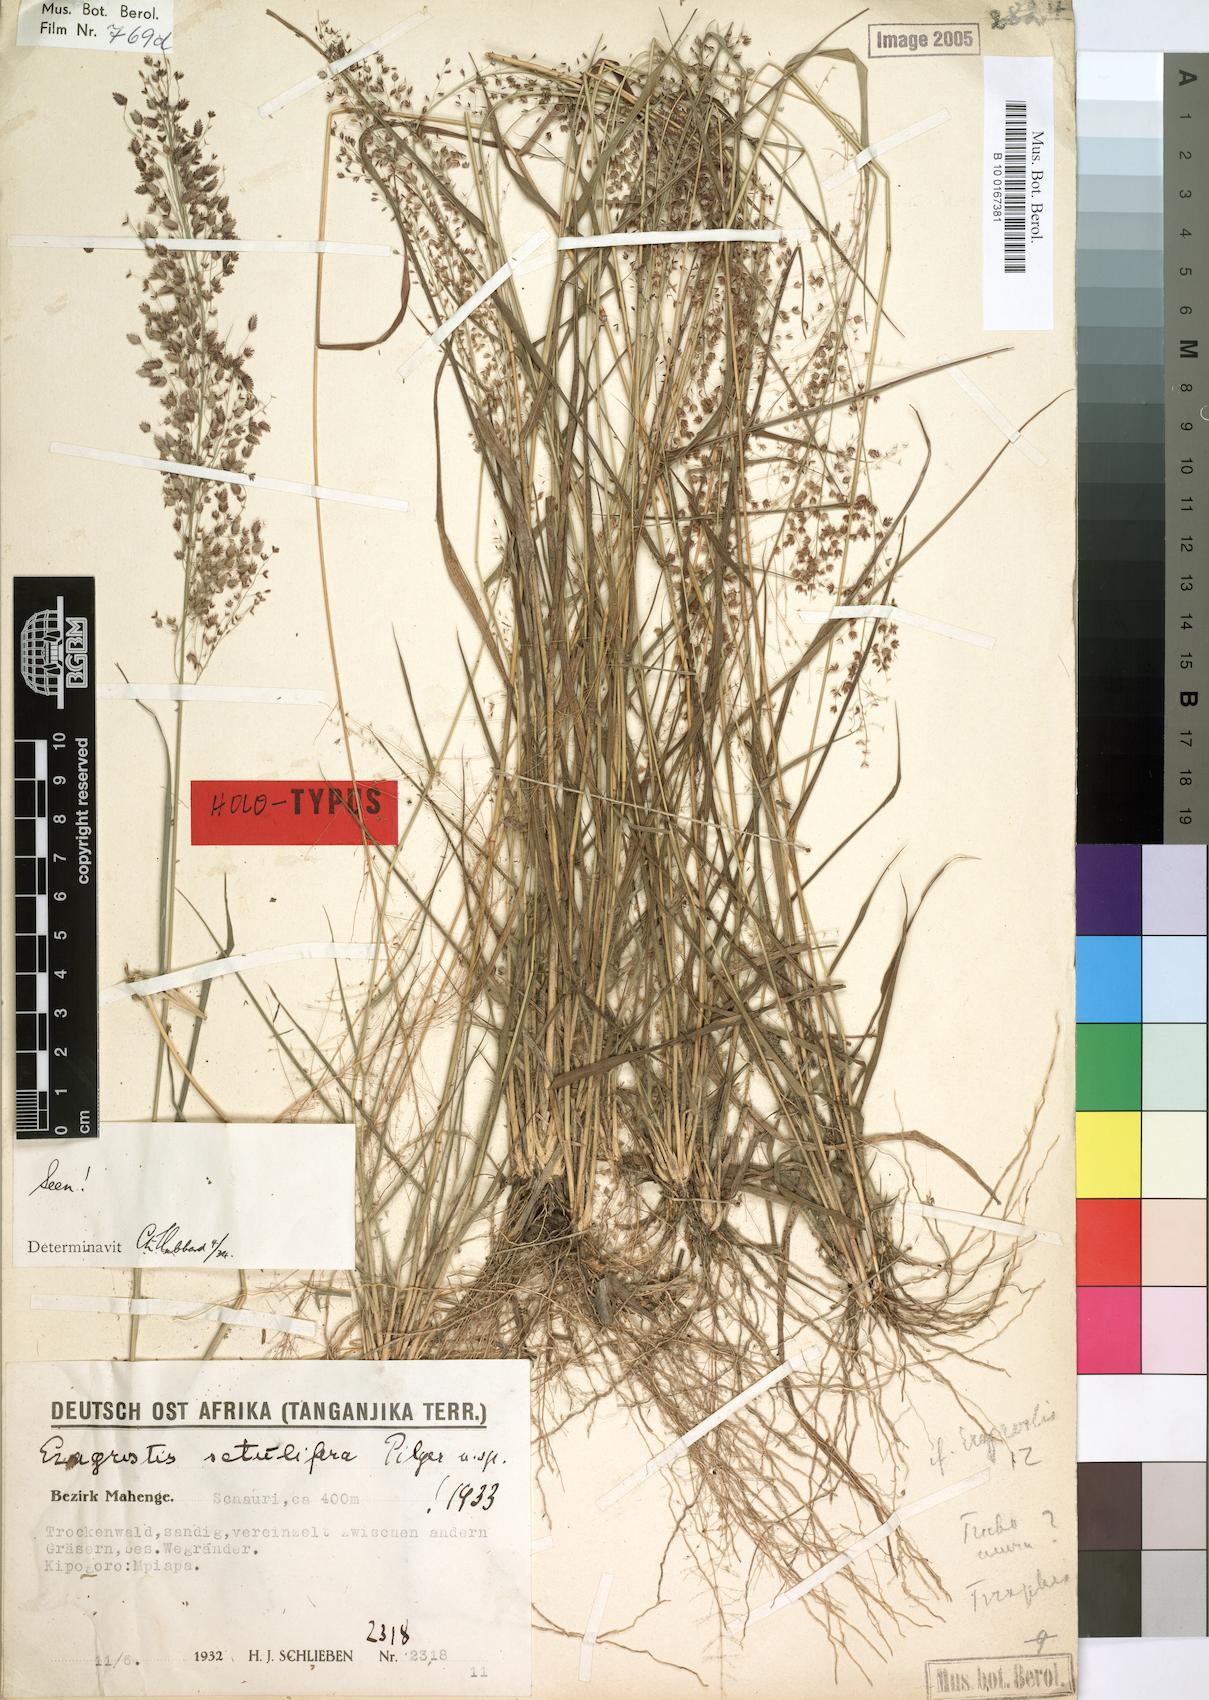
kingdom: Plantae
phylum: Tracheophyta
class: Liliopsida
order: Poales
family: Poaceae
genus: Eragrostis
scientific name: Eragrostis setulifera
